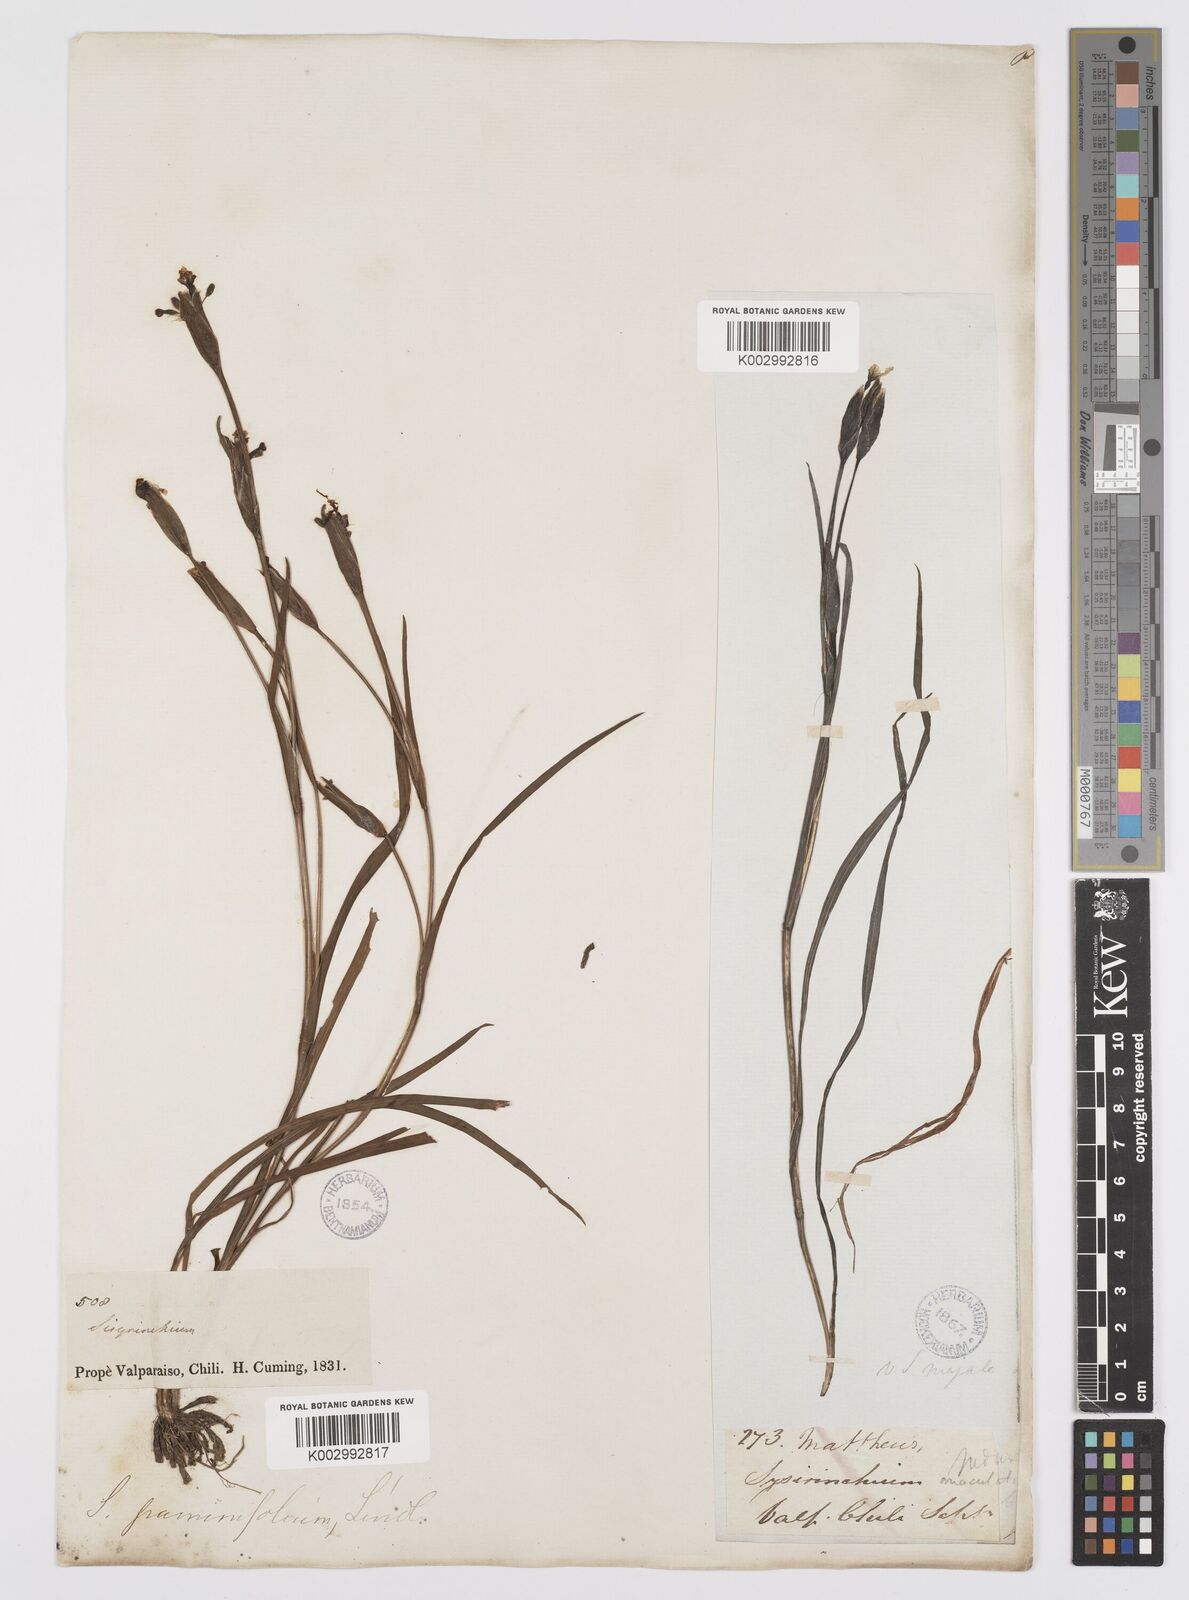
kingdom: Plantae
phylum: Tracheophyta
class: Liliopsida
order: Asparagales
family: Iridaceae
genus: Sisyrinchium
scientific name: Sisyrinchium graminifolium
